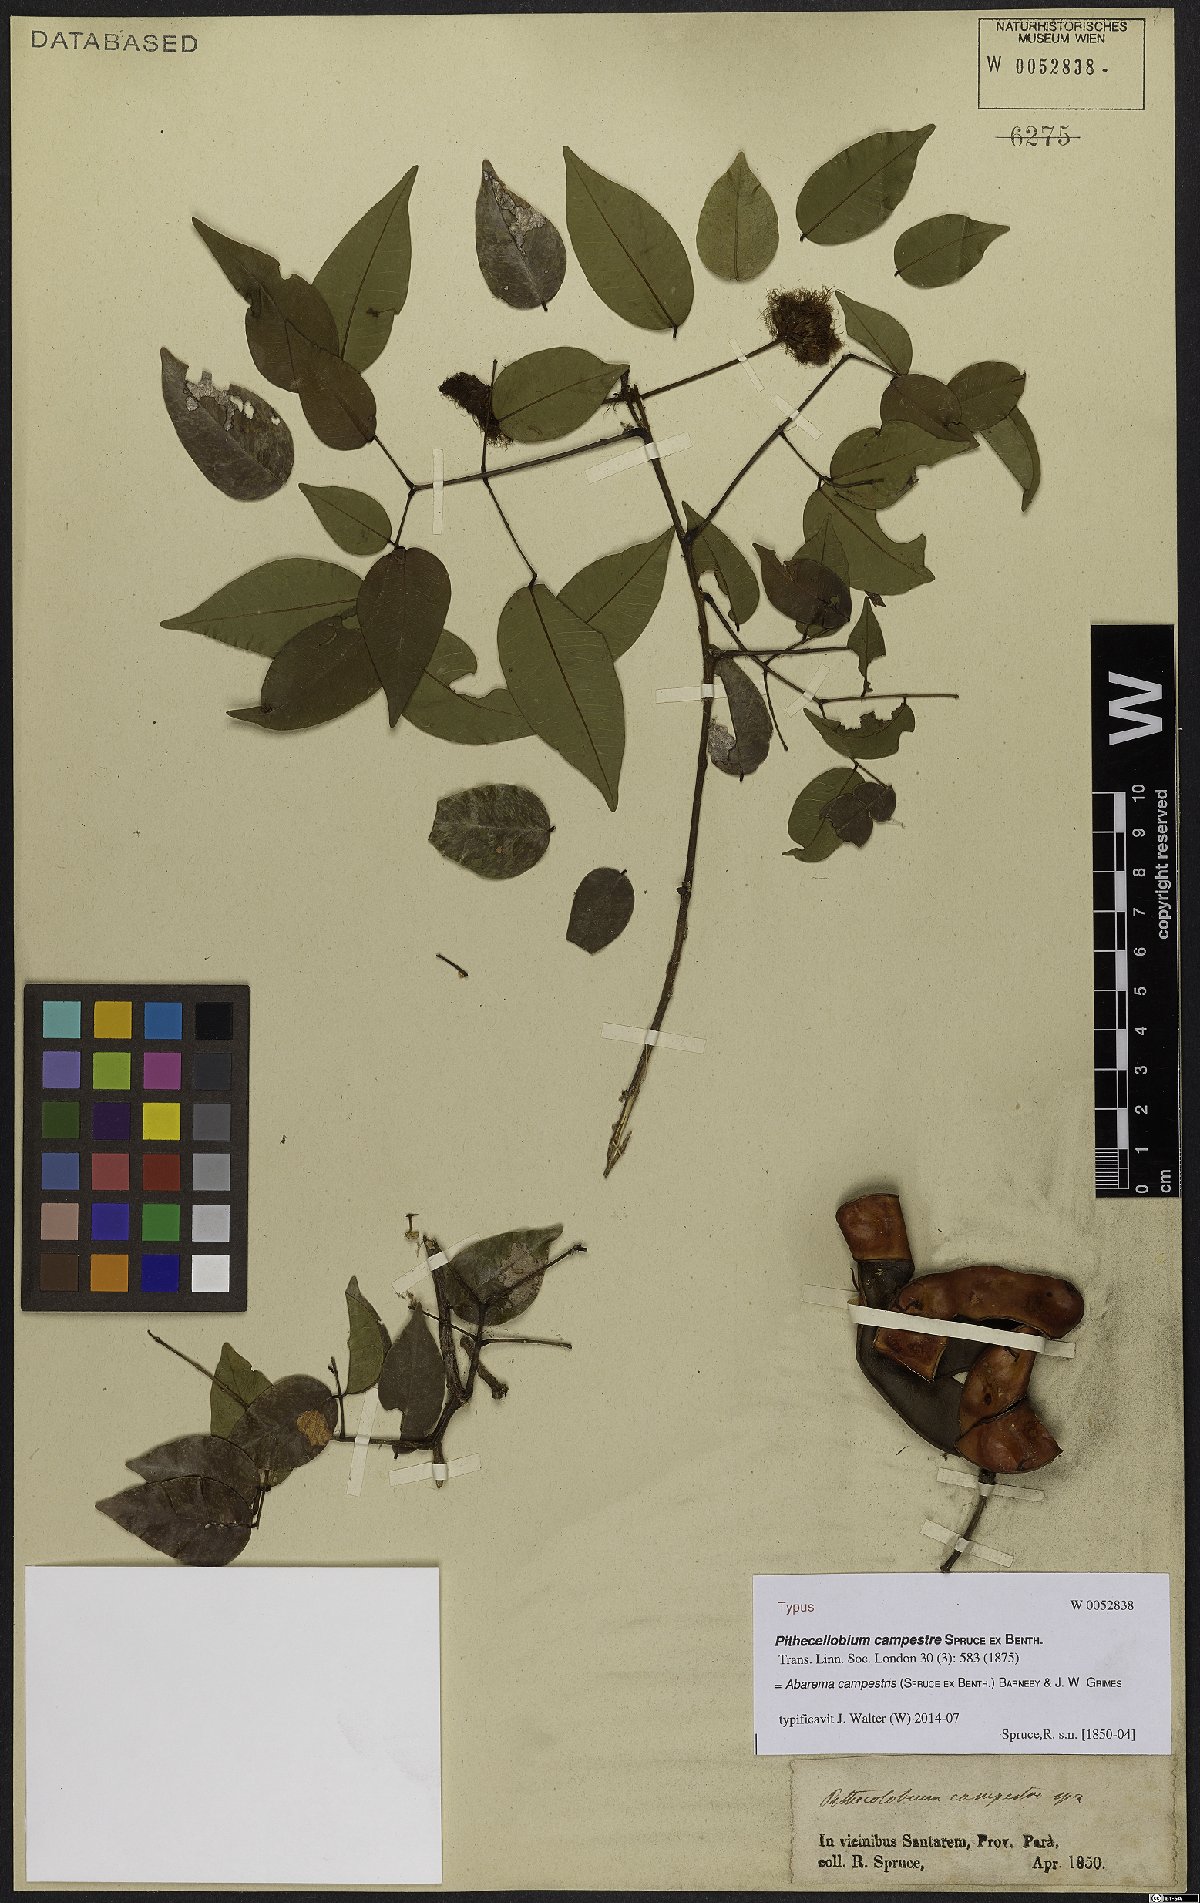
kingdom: Plantae
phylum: Tracheophyta
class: Magnoliopsida
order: Fabales
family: Fabaceae
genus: Jupunba
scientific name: Jupunba campestris
